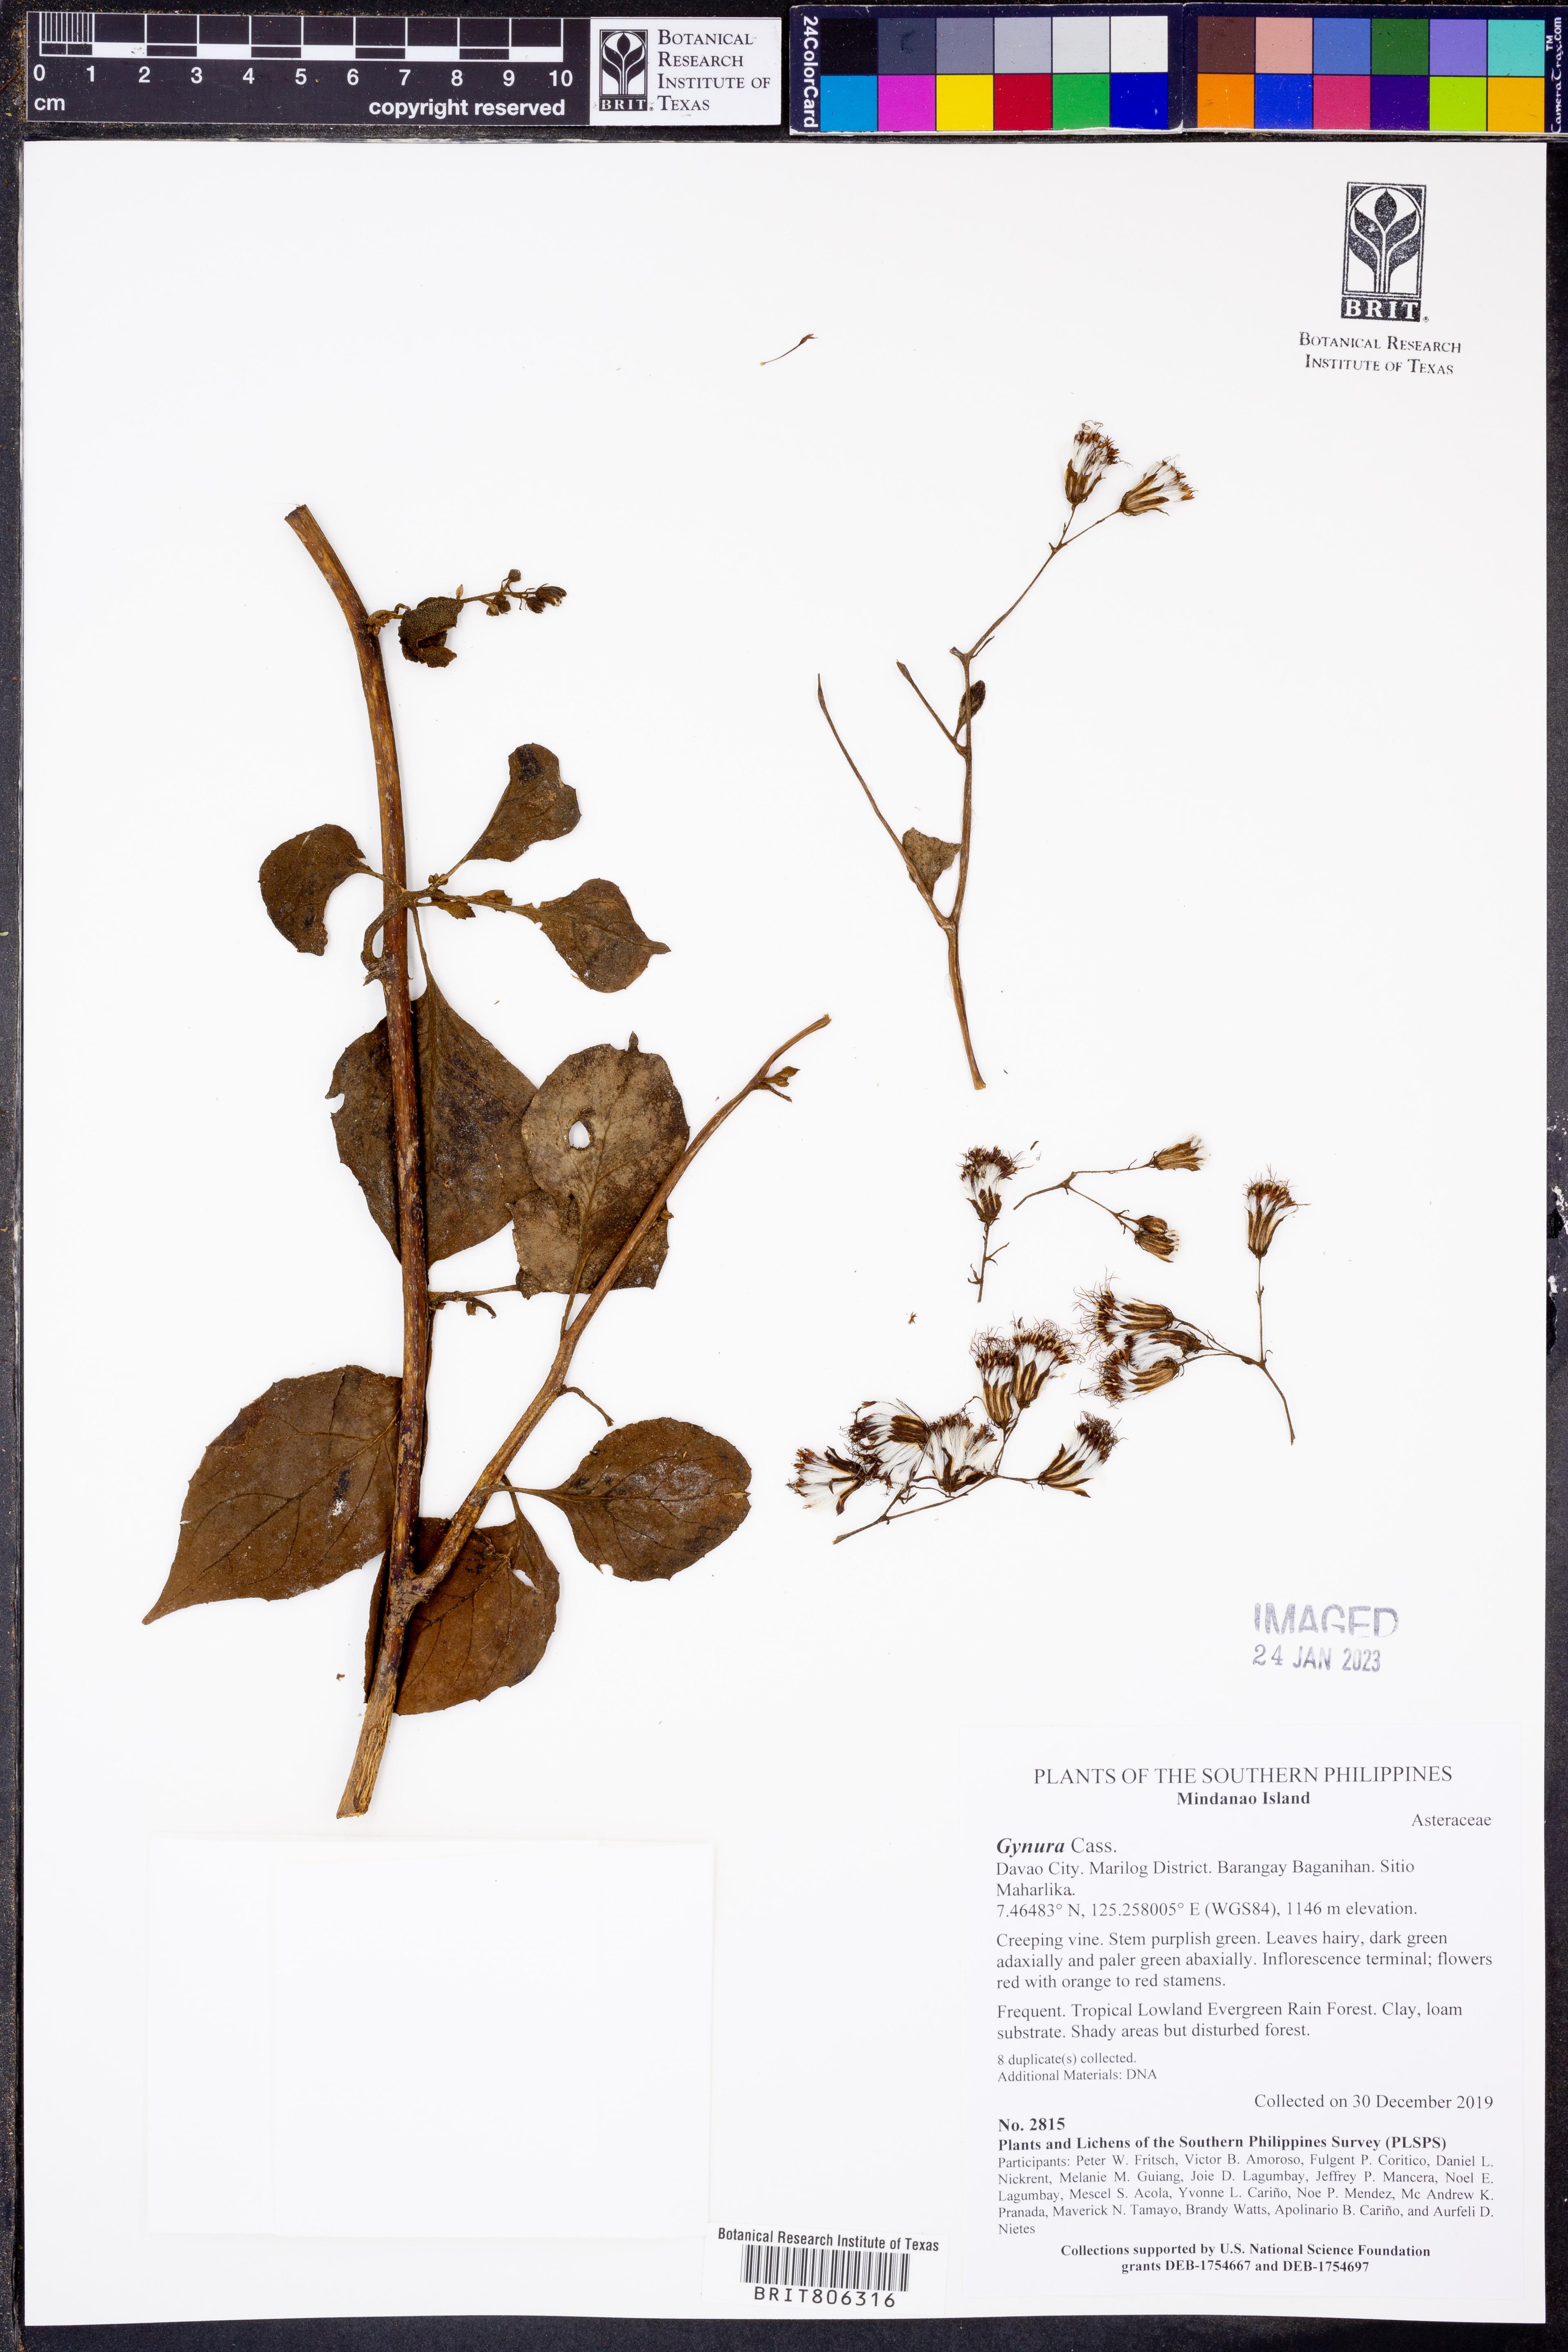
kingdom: Plantae
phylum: Tracheophyta
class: Magnoliopsida
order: Asterales
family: Asteraceae
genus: Gynura
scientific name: Gynura
